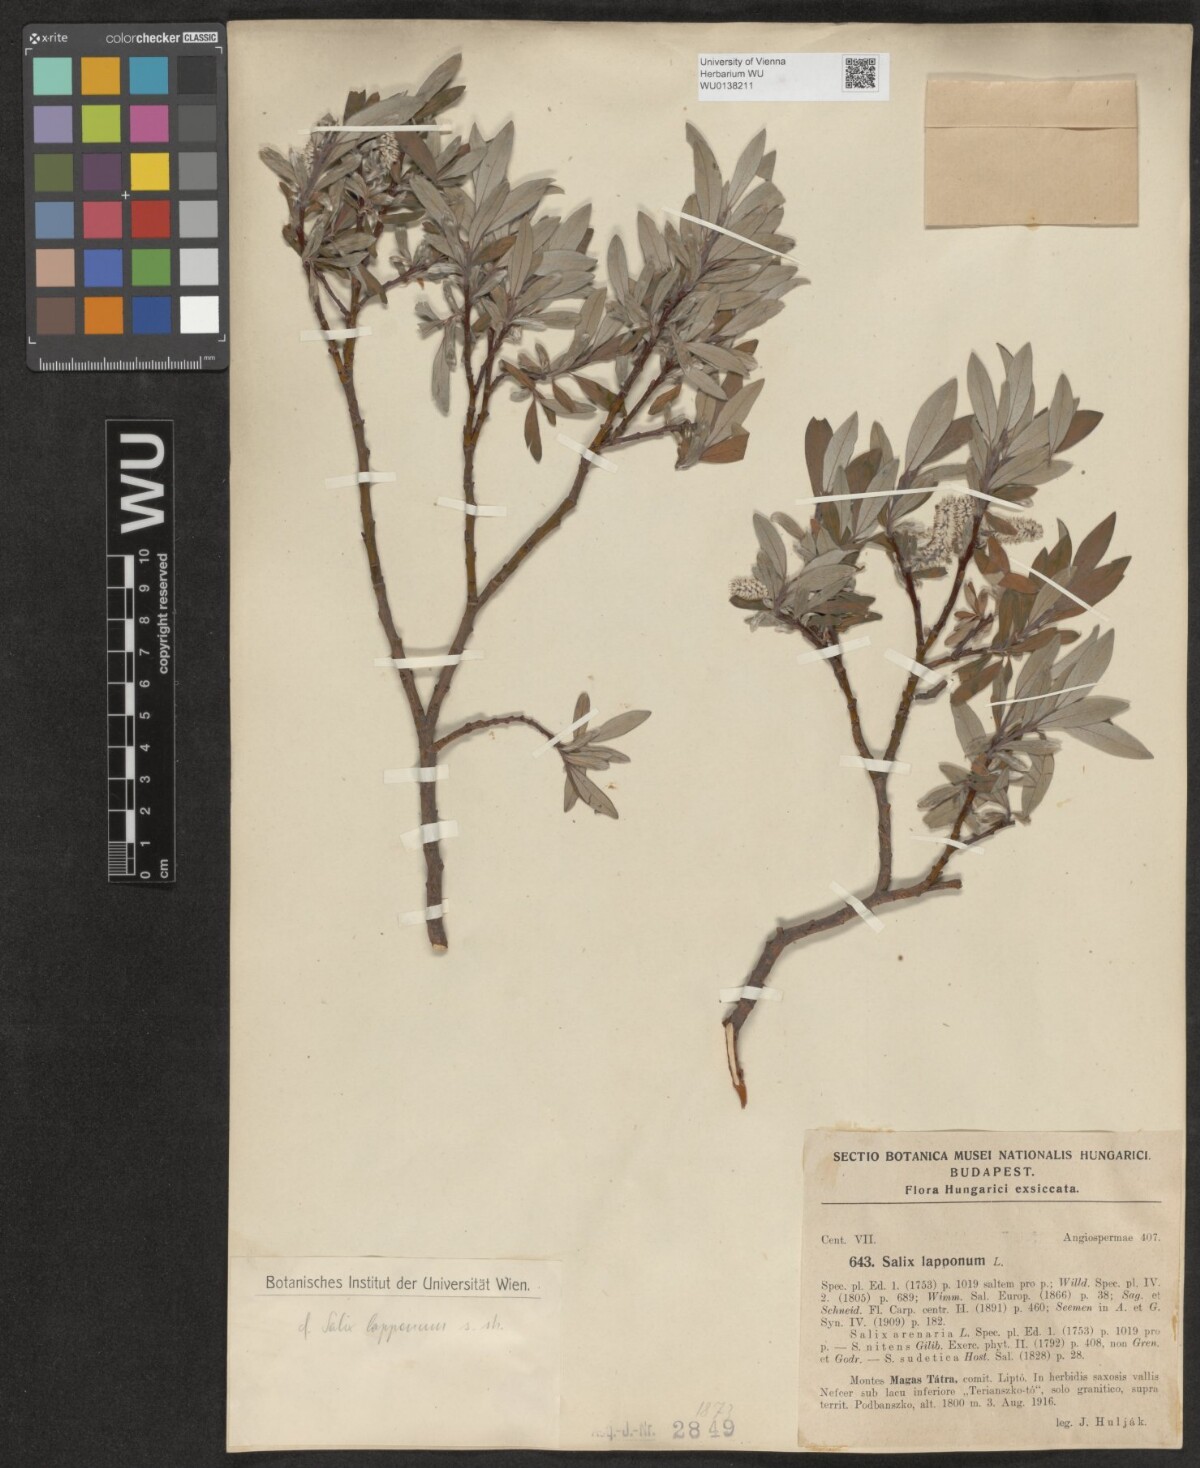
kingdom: Plantae
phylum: Tracheophyta
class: Magnoliopsida
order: Malpighiales
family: Salicaceae
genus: Salix
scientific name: Salix lapponum
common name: Downy willow
